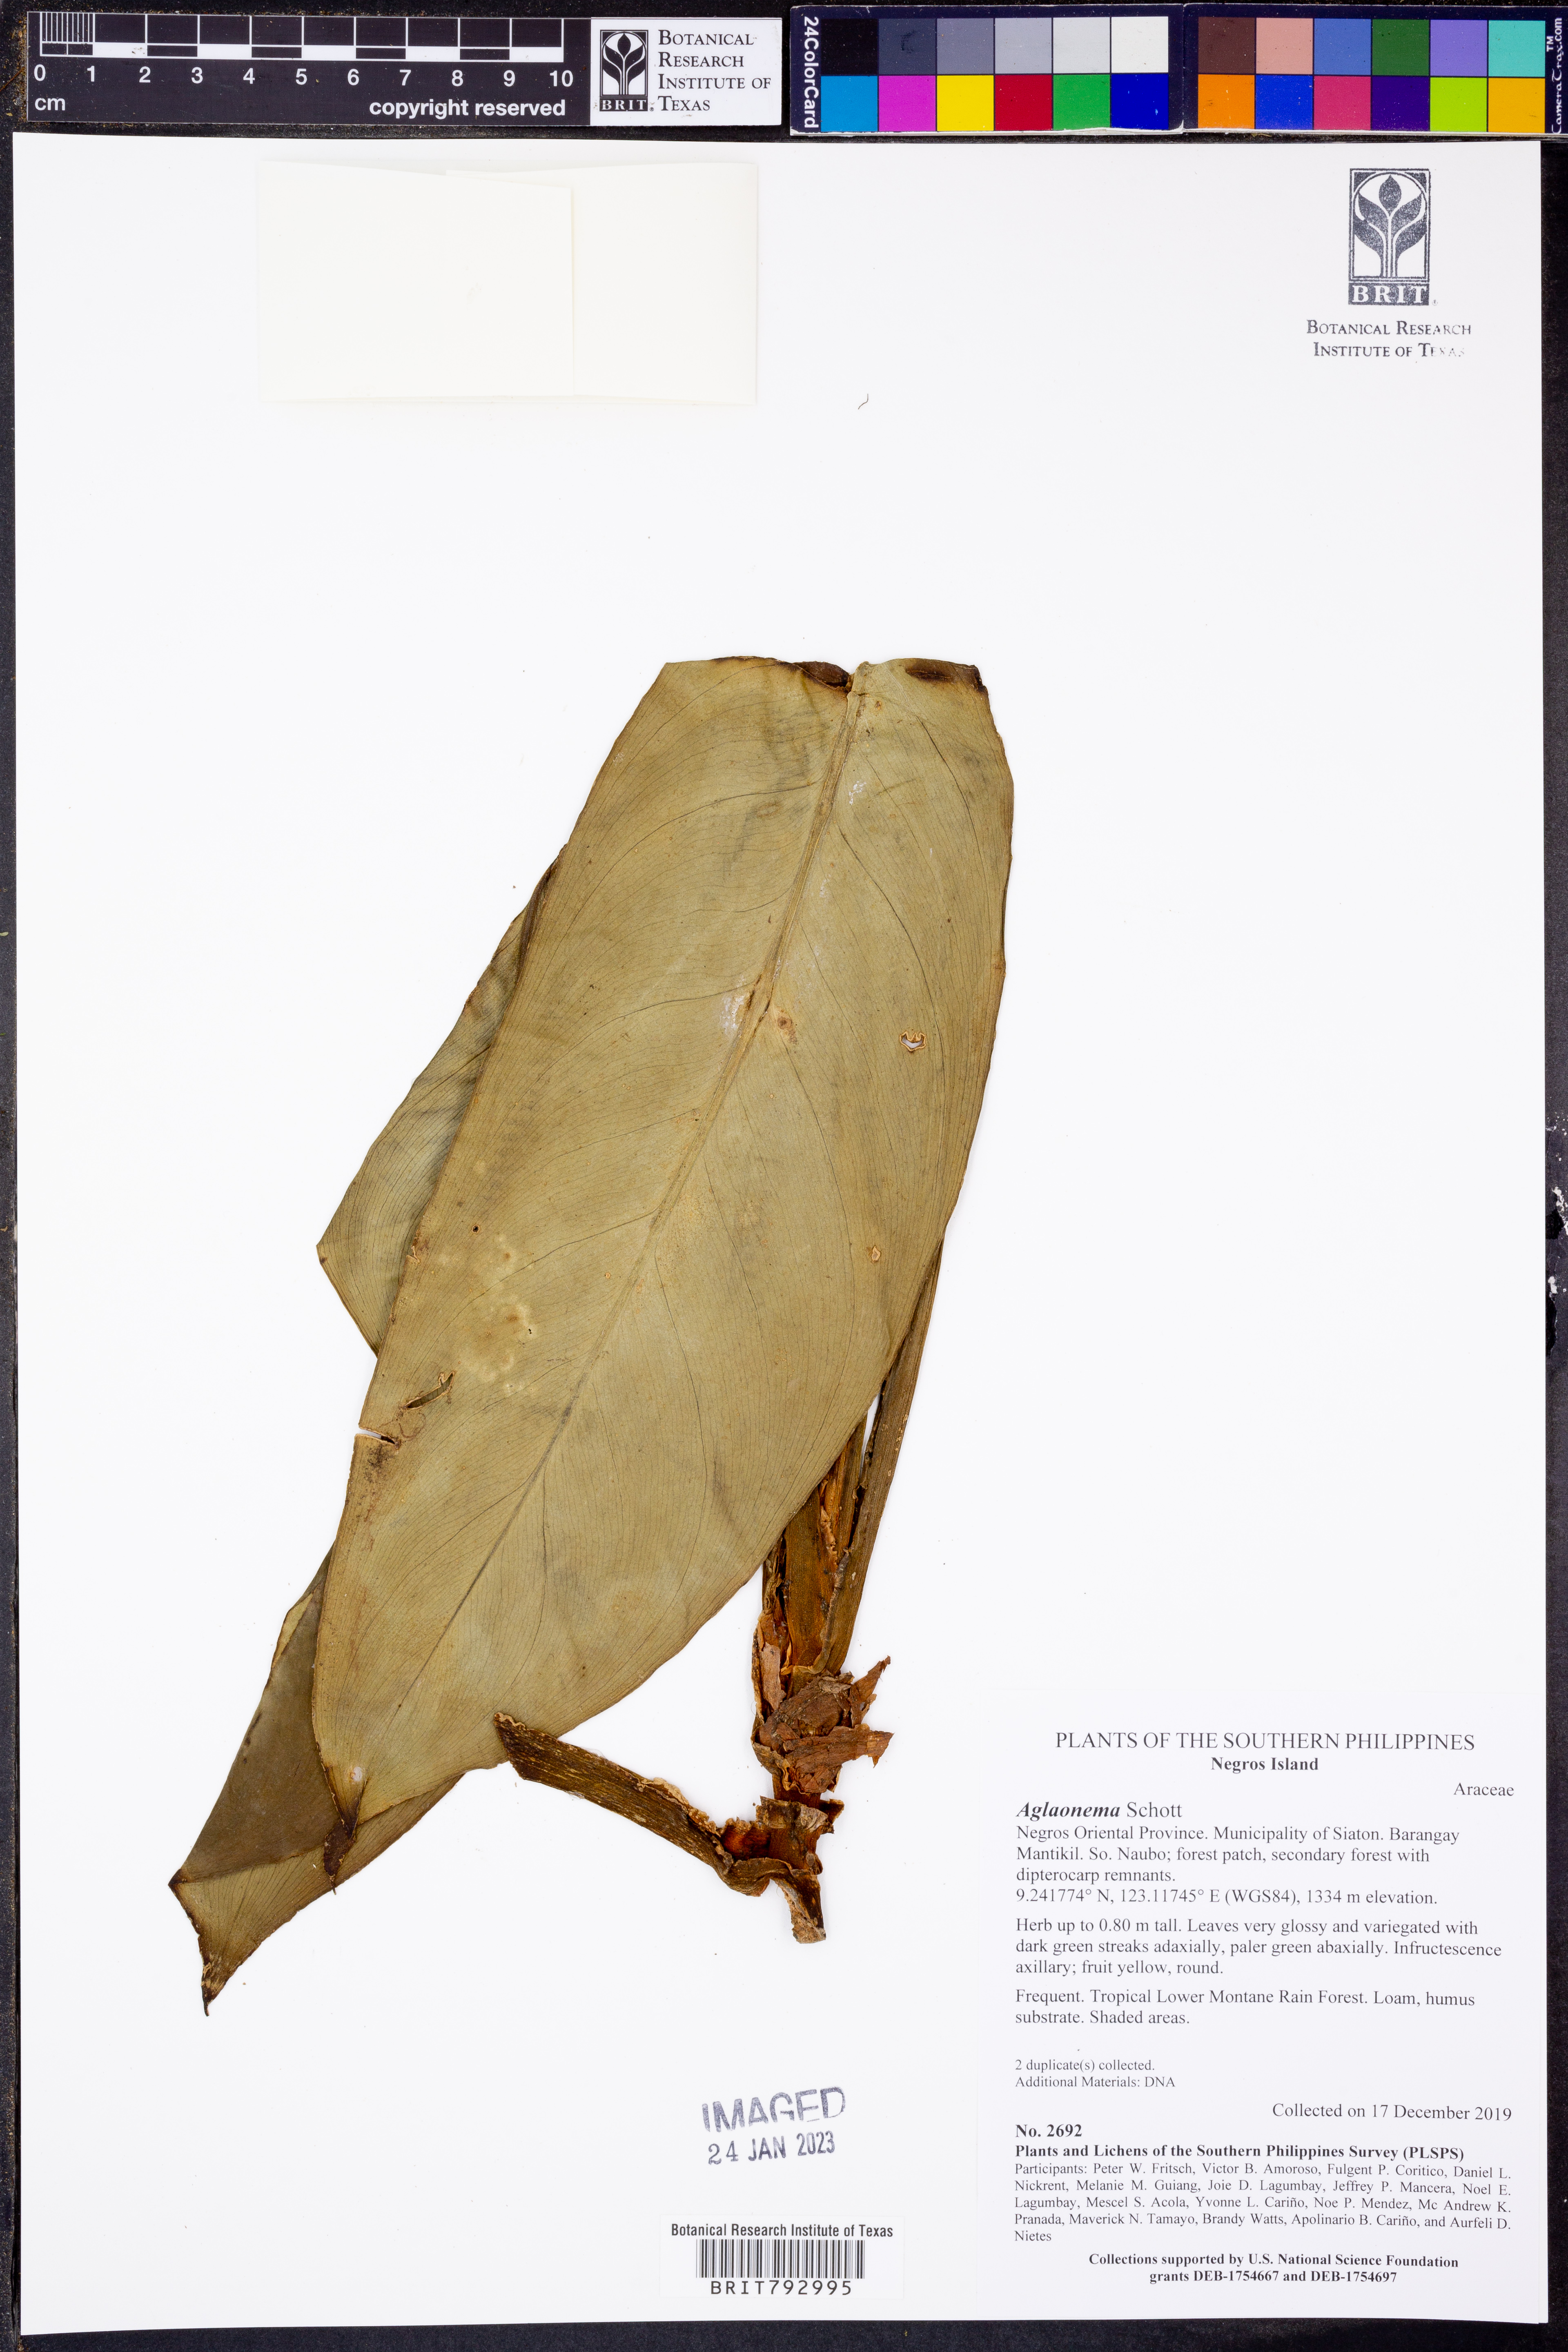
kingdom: Plantae
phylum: Tracheophyta
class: Liliopsida
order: Alismatales
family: Araceae
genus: Aglaonema
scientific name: Aglaonema
